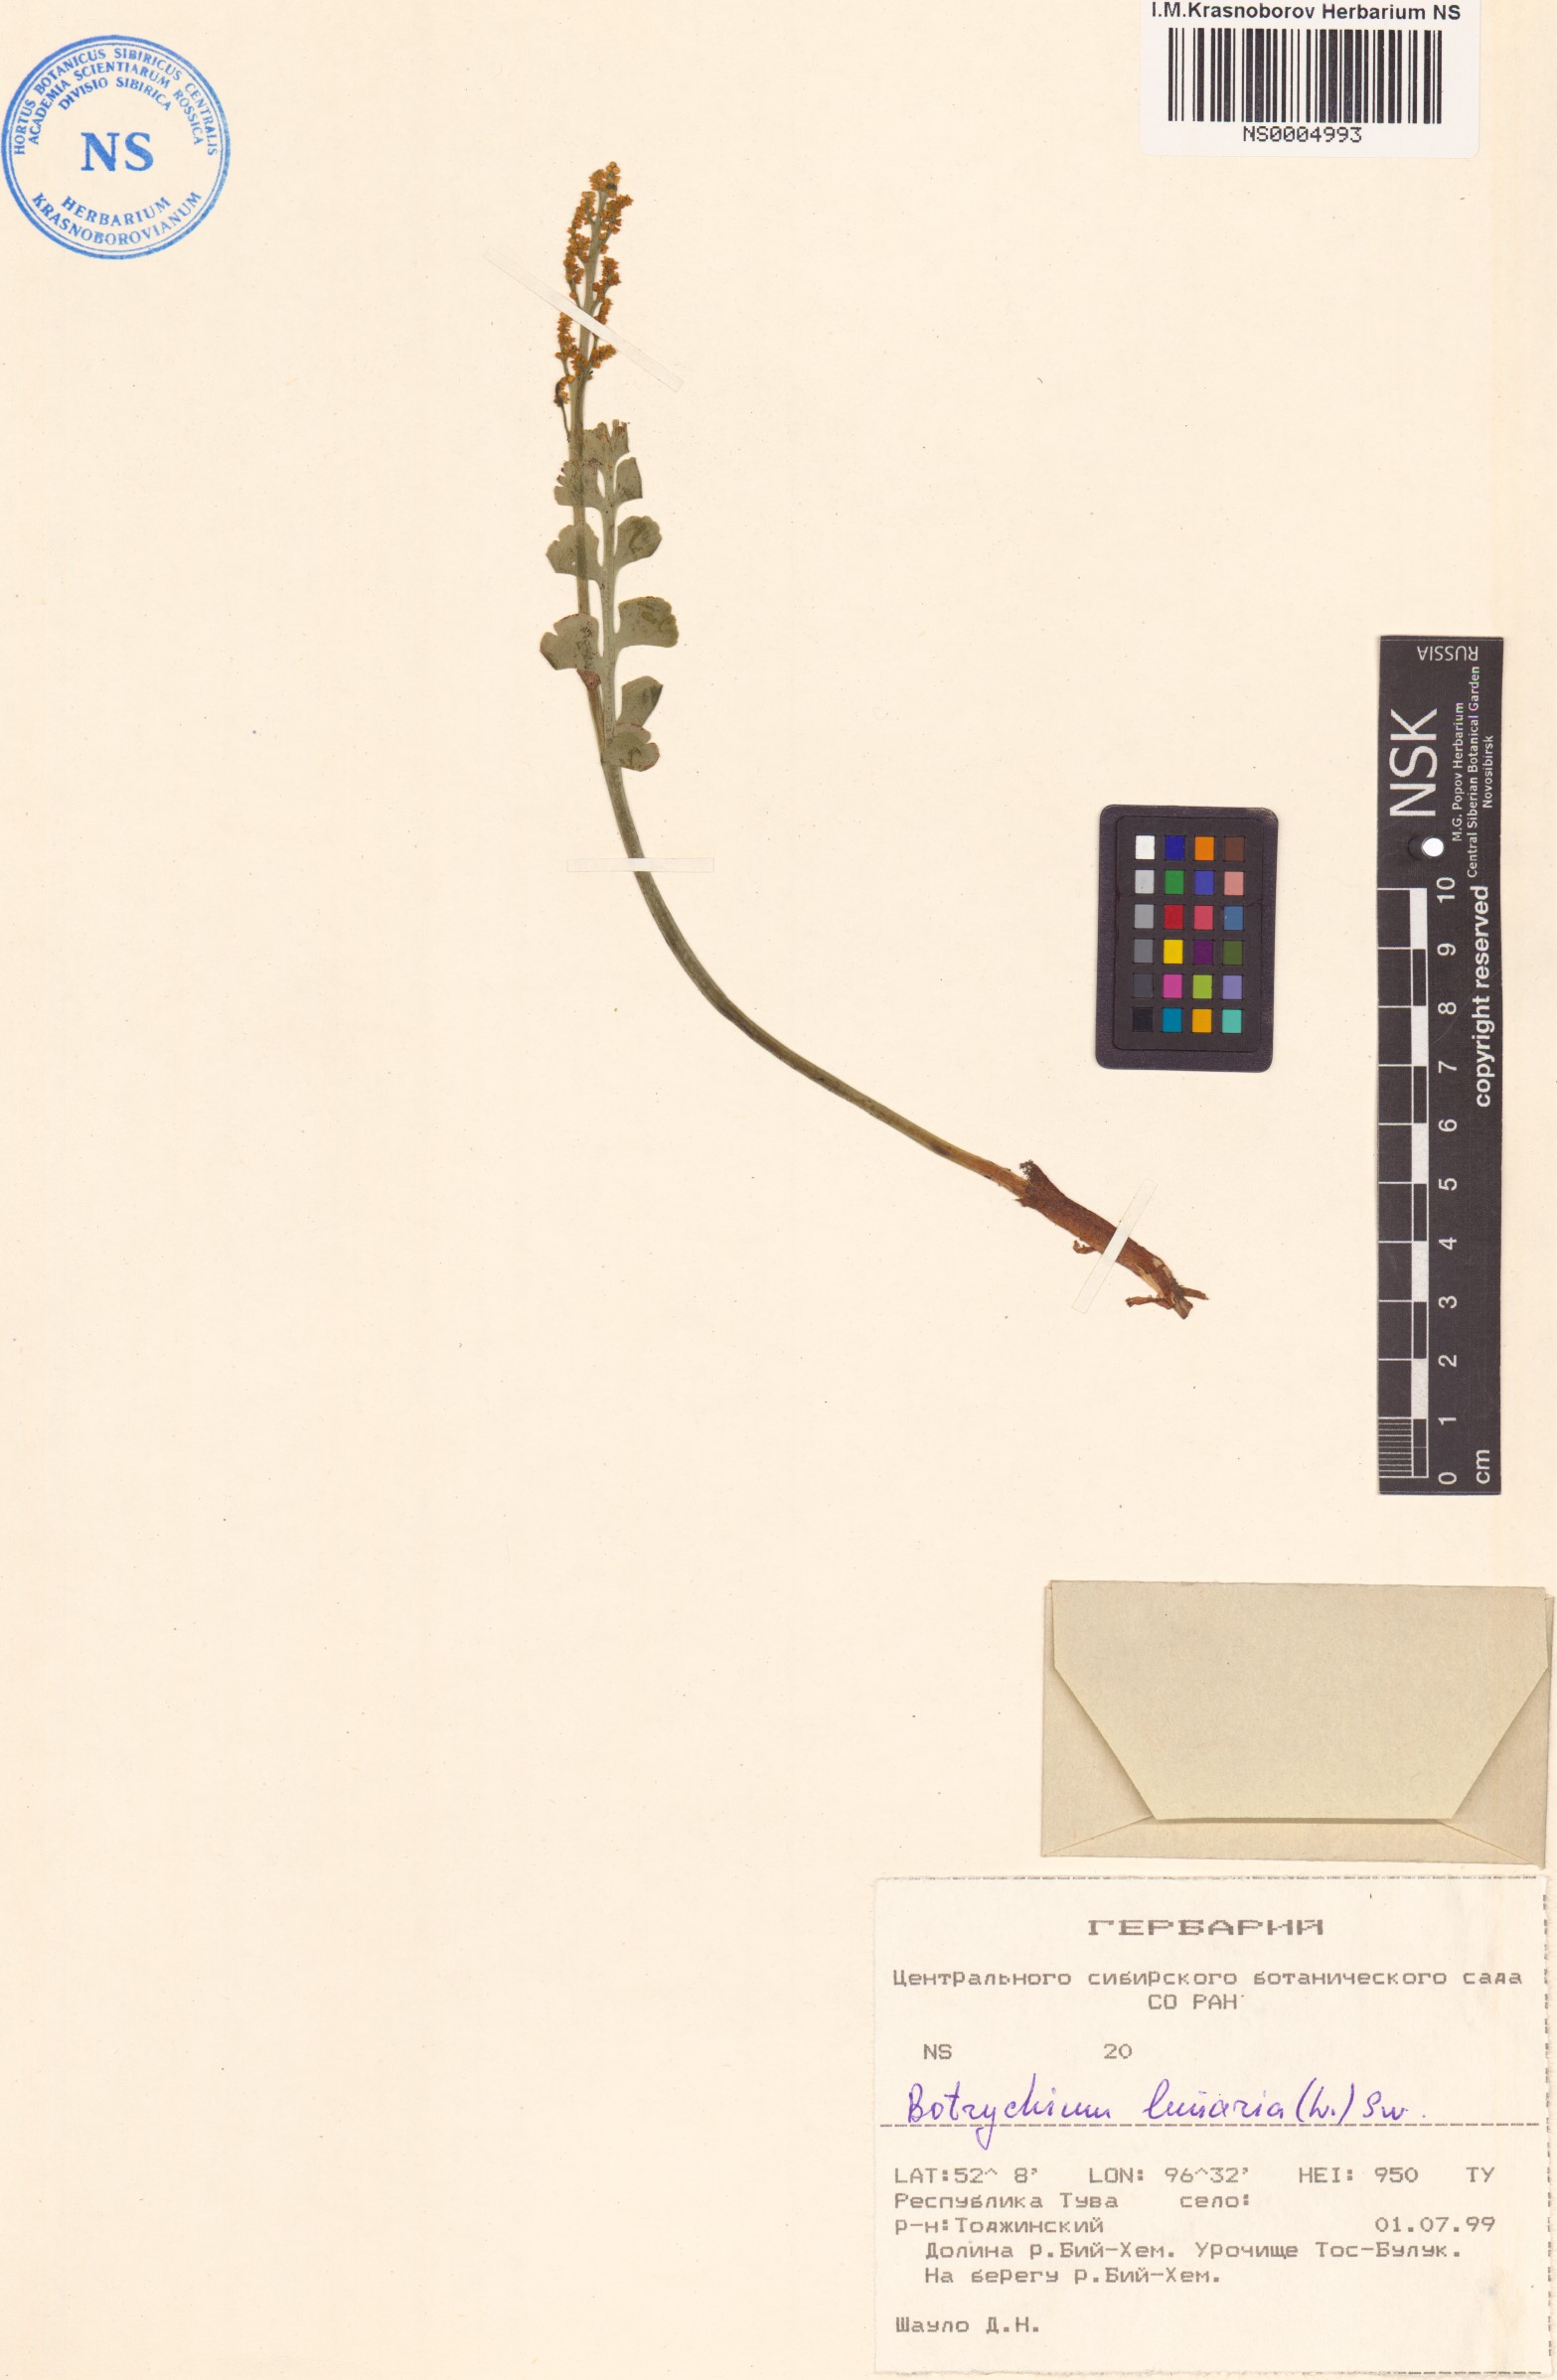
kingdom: Plantae
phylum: Tracheophyta
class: Polypodiopsida
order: Ophioglossales
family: Ophioglossaceae
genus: Botrychium
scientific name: Botrychium lunaria
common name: Moonwort
